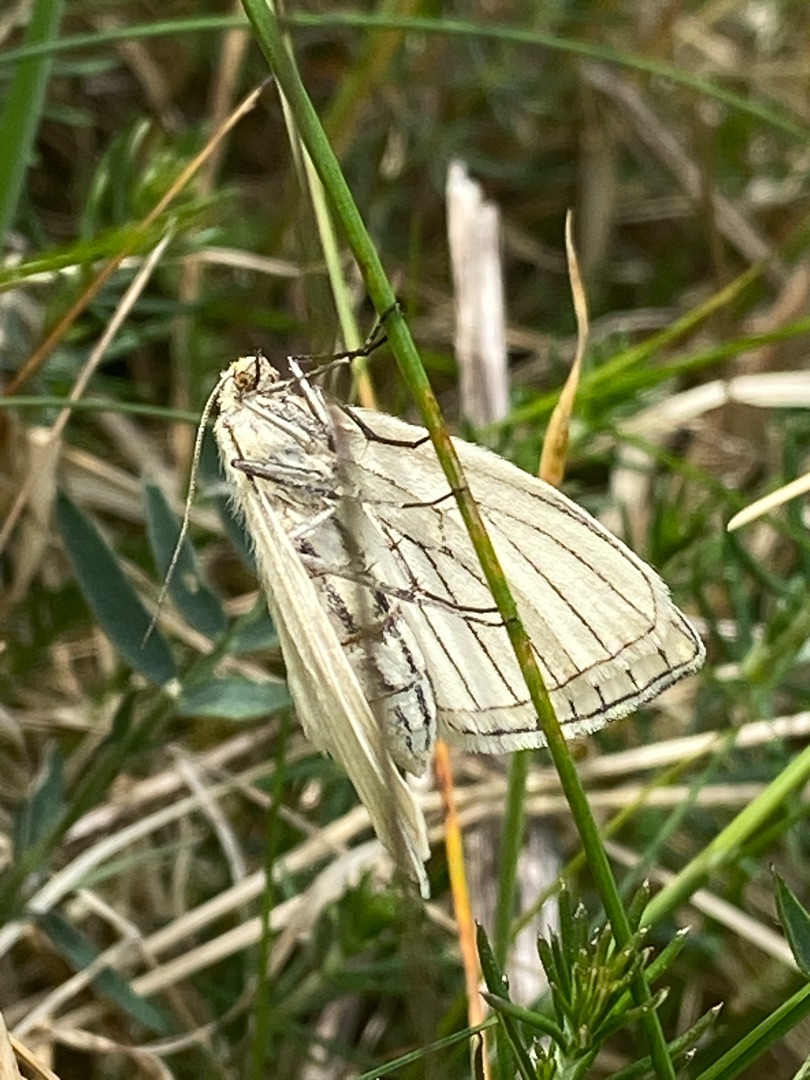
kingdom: Animalia
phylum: Arthropoda
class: Insecta
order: Lepidoptera
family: Geometridae
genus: Siona
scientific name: Siona lineata
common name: Hvidvingemåler
